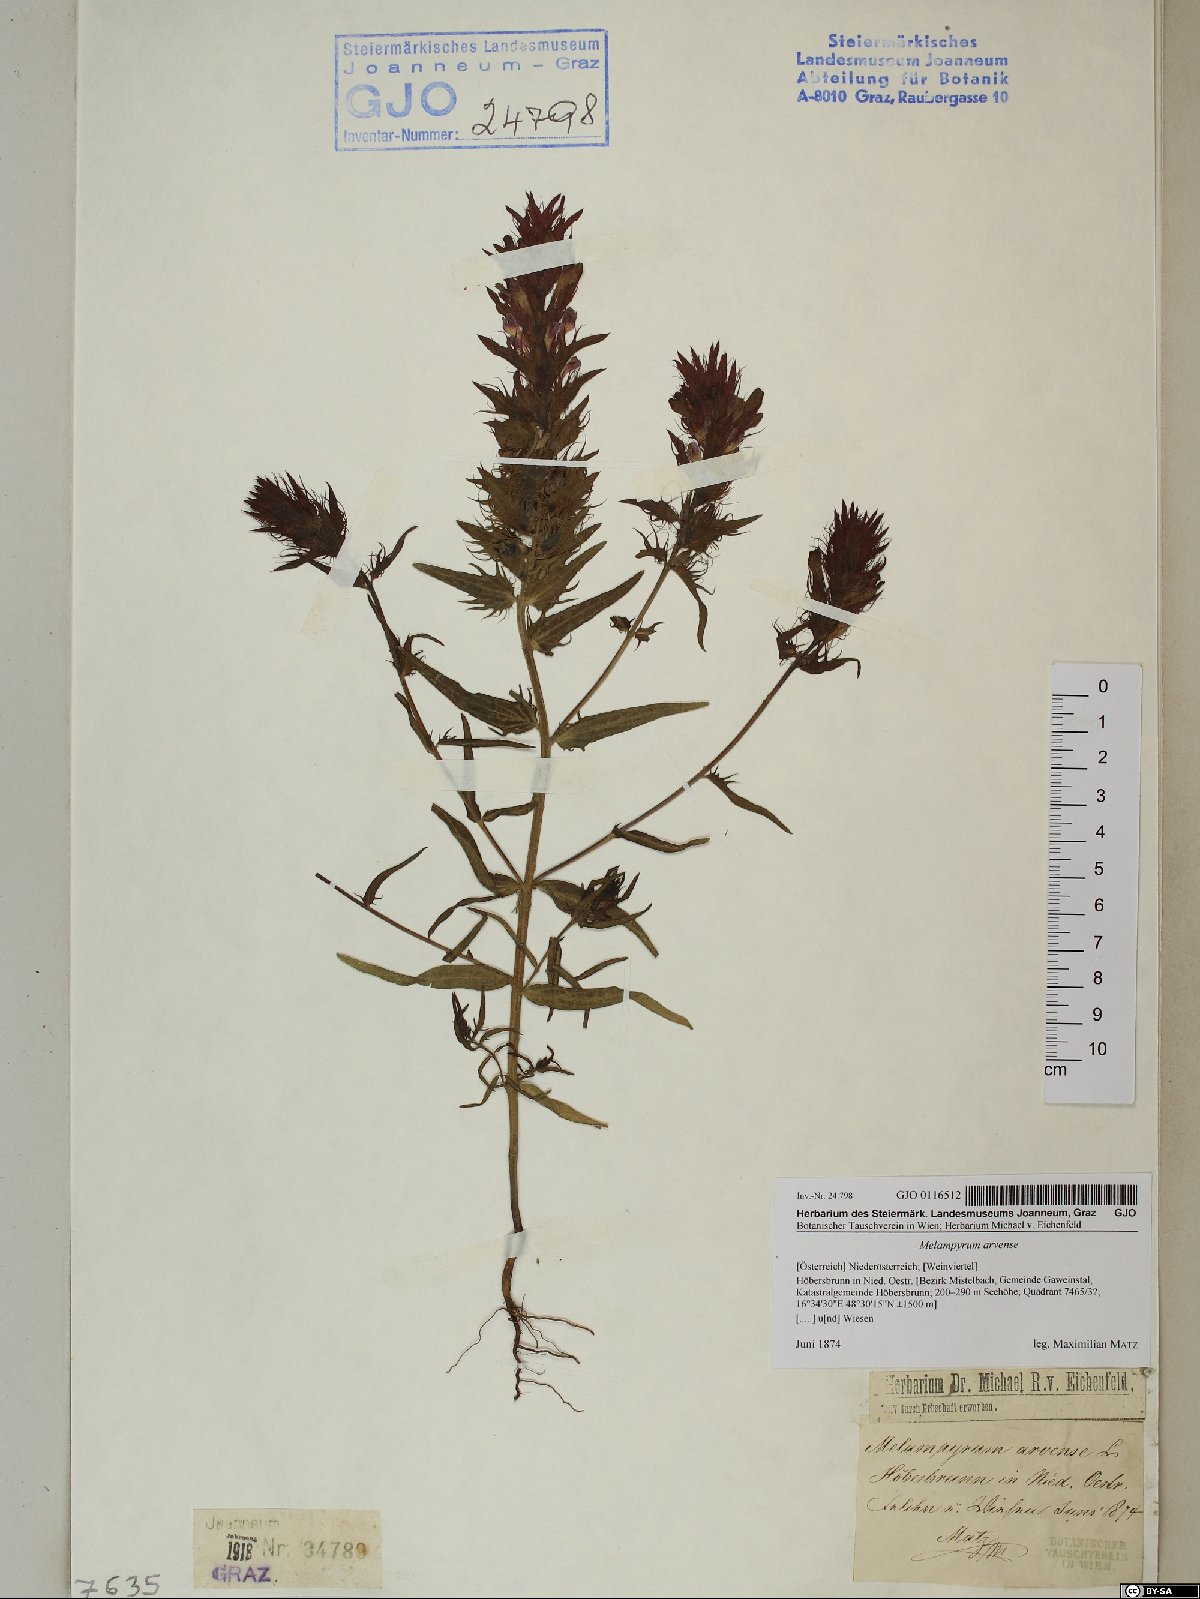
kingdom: Plantae
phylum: Tracheophyta
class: Magnoliopsida
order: Lamiales
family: Orobanchaceae
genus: Melampyrum
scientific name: Melampyrum arvense
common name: Field cow-wheat
